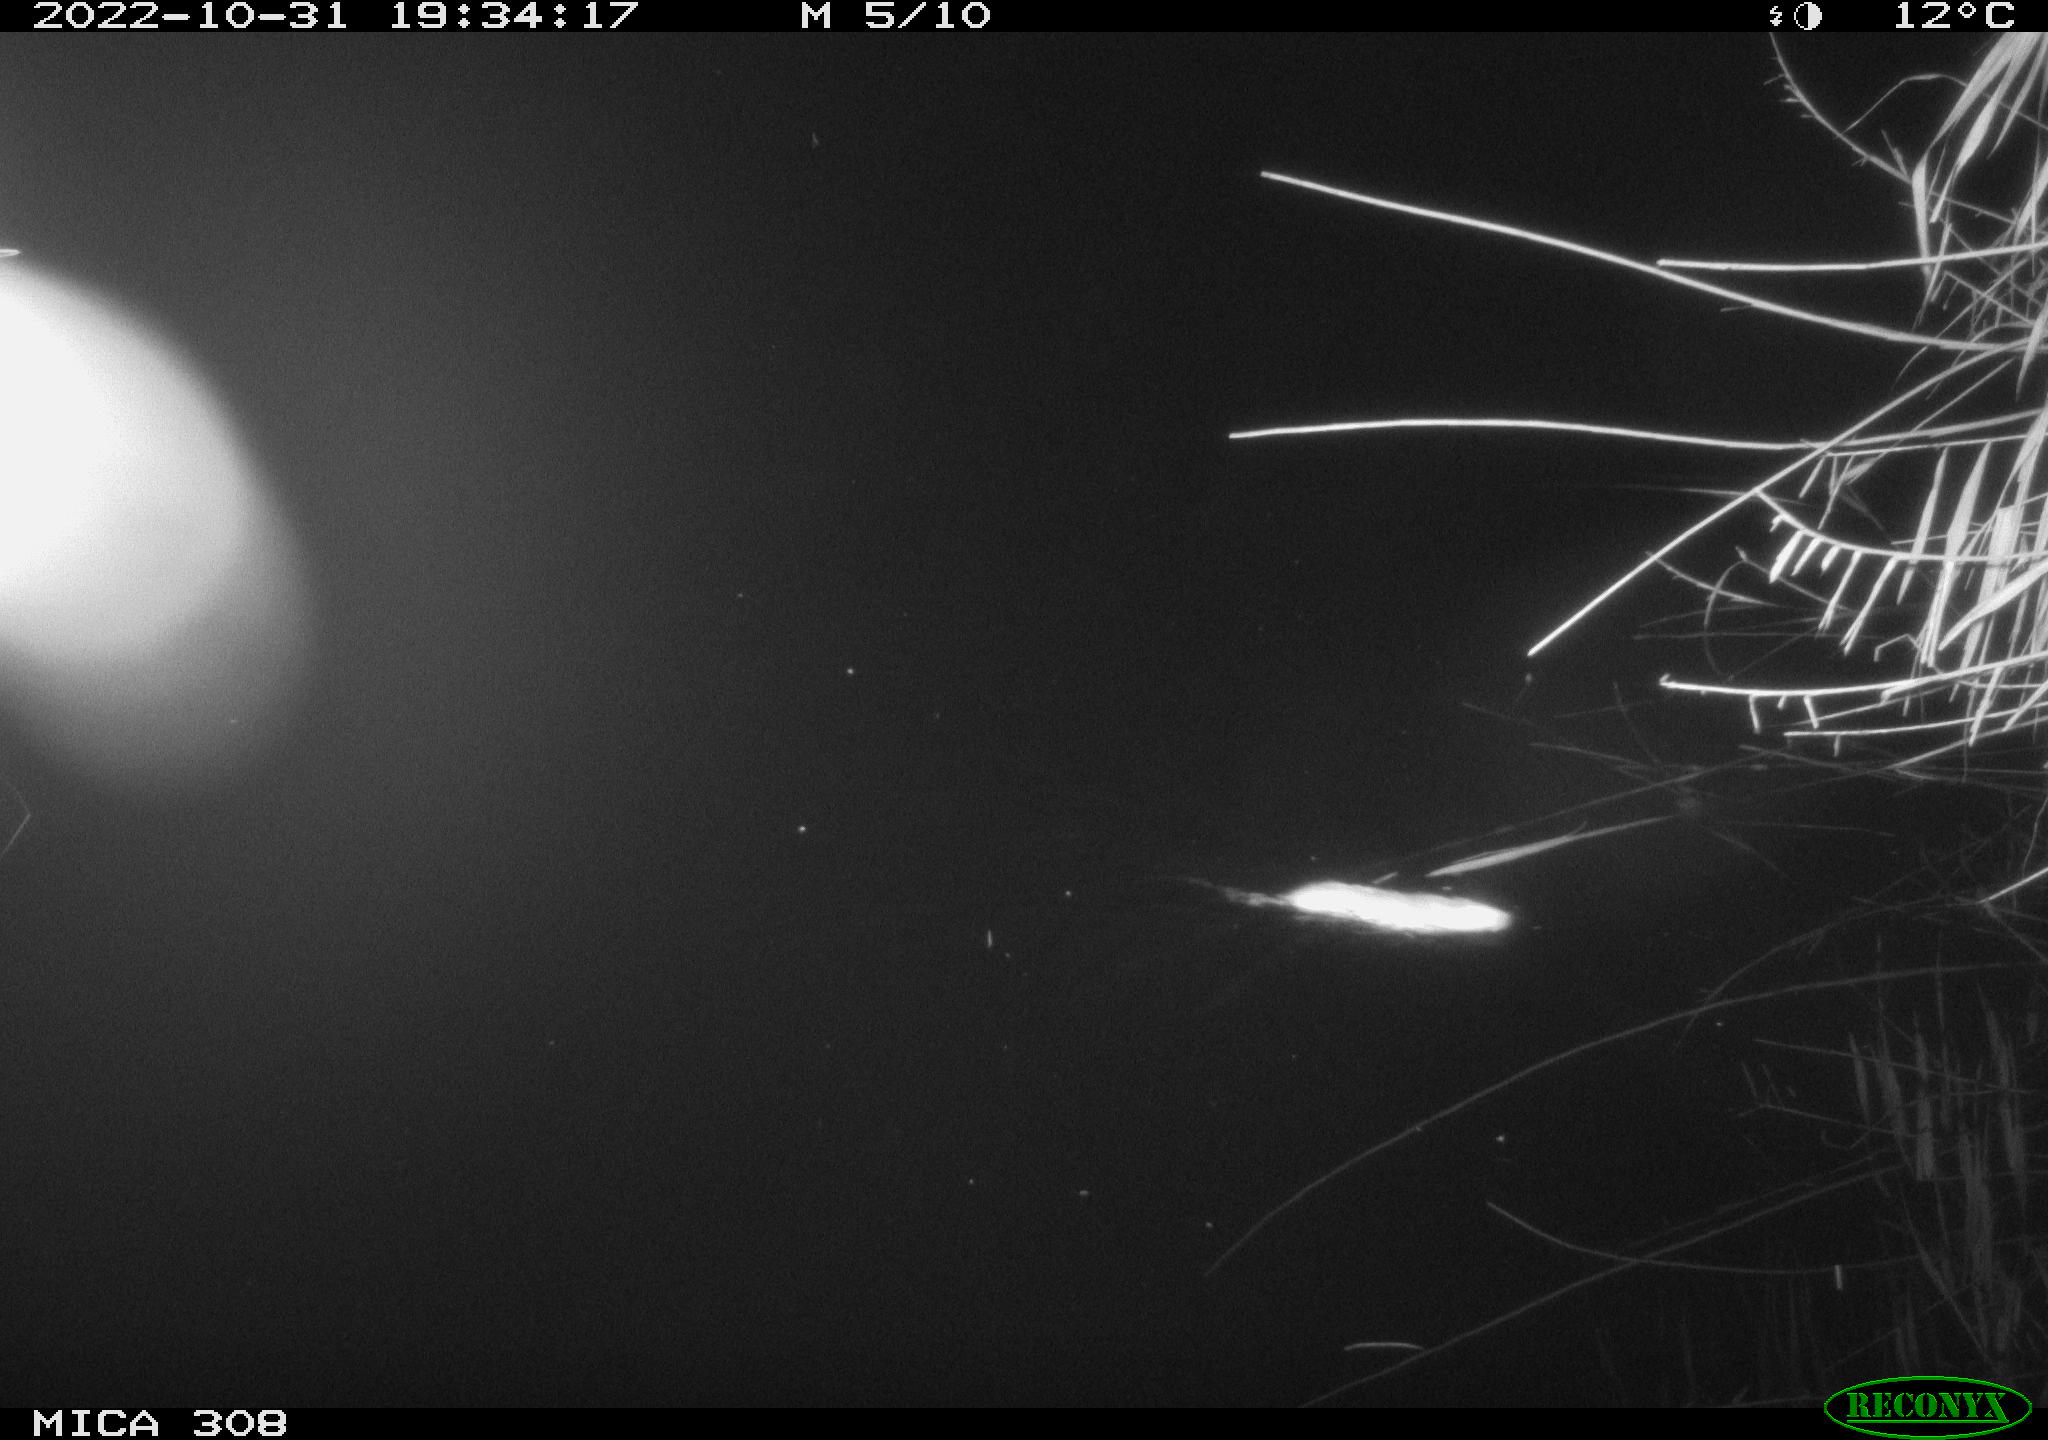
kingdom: Animalia
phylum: Chordata
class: Mammalia
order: Rodentia
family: Muridae
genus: Rattus
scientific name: Rattus norvegicus
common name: Brown rat
